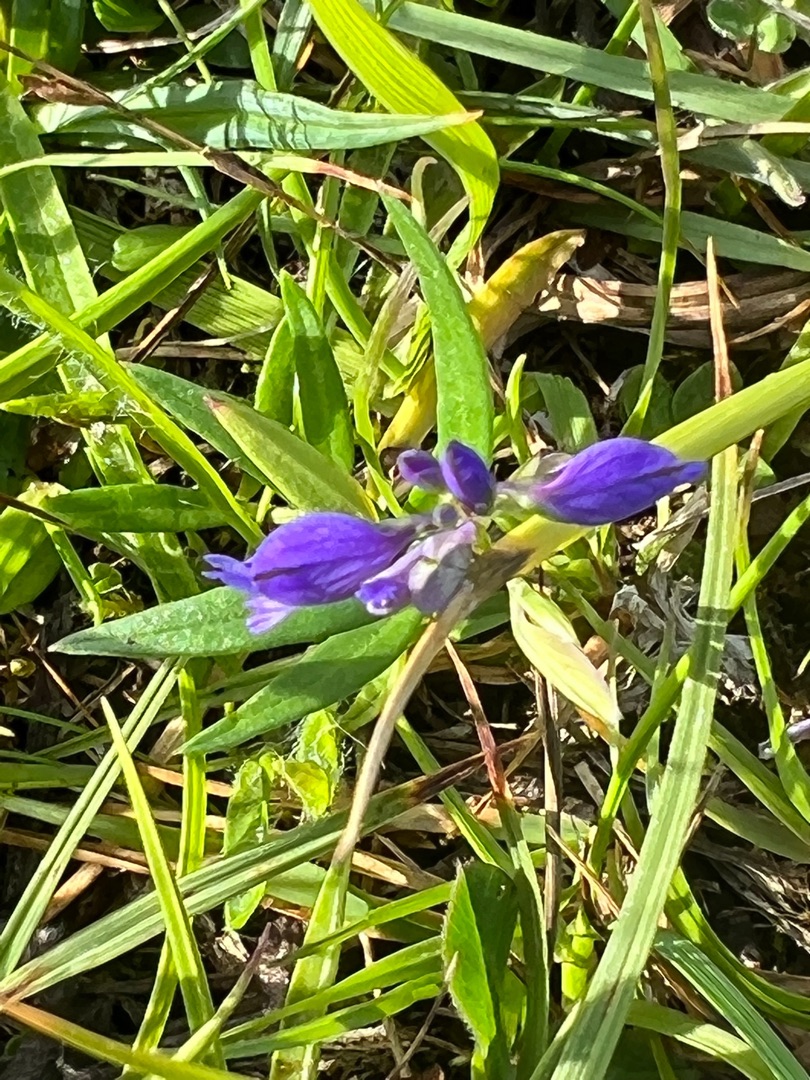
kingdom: Plantae
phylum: Tracheophyta
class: Magnoliopsida
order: Fabales
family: Polygalaceae
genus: Polygala
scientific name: Polygala vulgaris
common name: Almindelig mælkeurt
